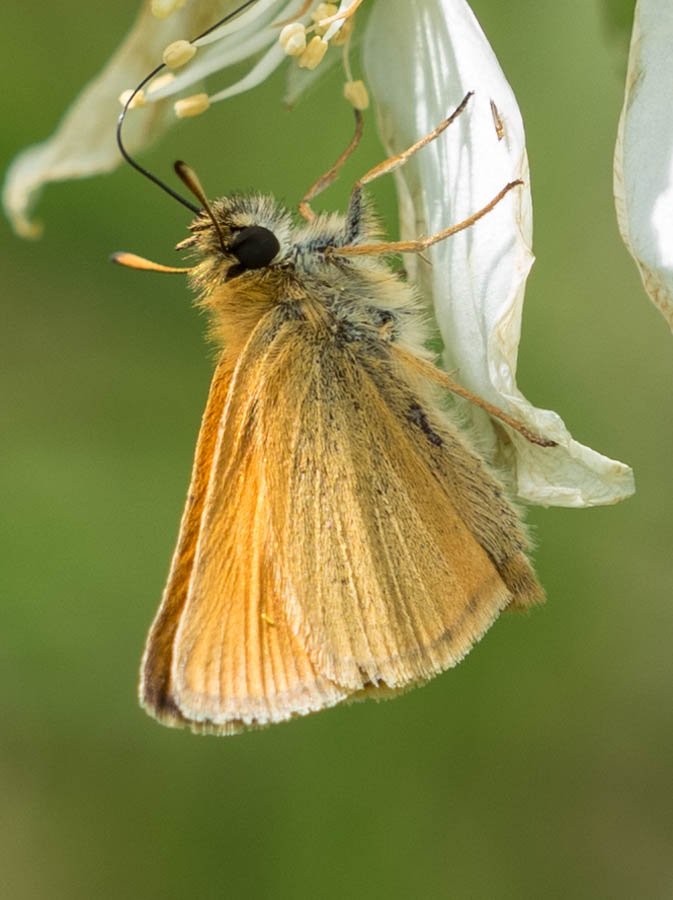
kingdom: Animalia
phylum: Arthropoda
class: Insecta
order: Lepidoptera
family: Hesperiidae
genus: Thymelicus
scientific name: Thymelicus lineola
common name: European Skipper
